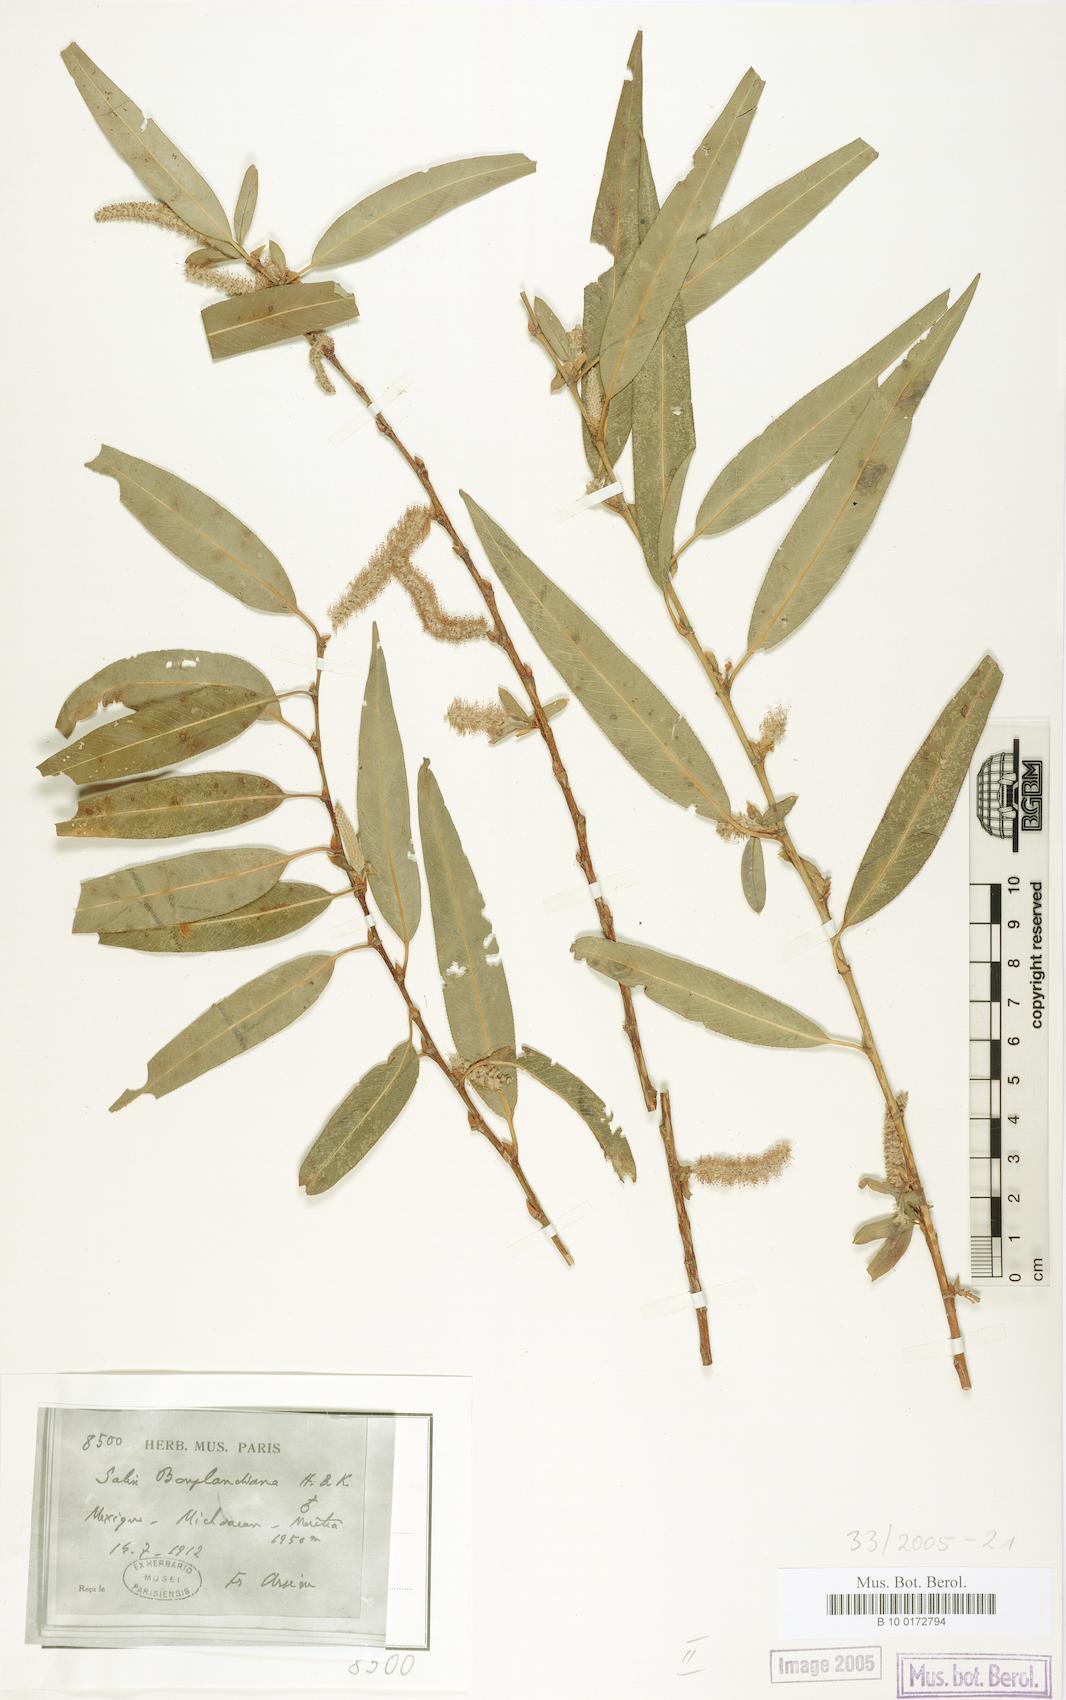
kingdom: Plantae
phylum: Tracheophyta
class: Magnoliopsida
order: Malpighiales
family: Salicaceae
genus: Salix
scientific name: Salix bonplandiana
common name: Bonpland’s willow
